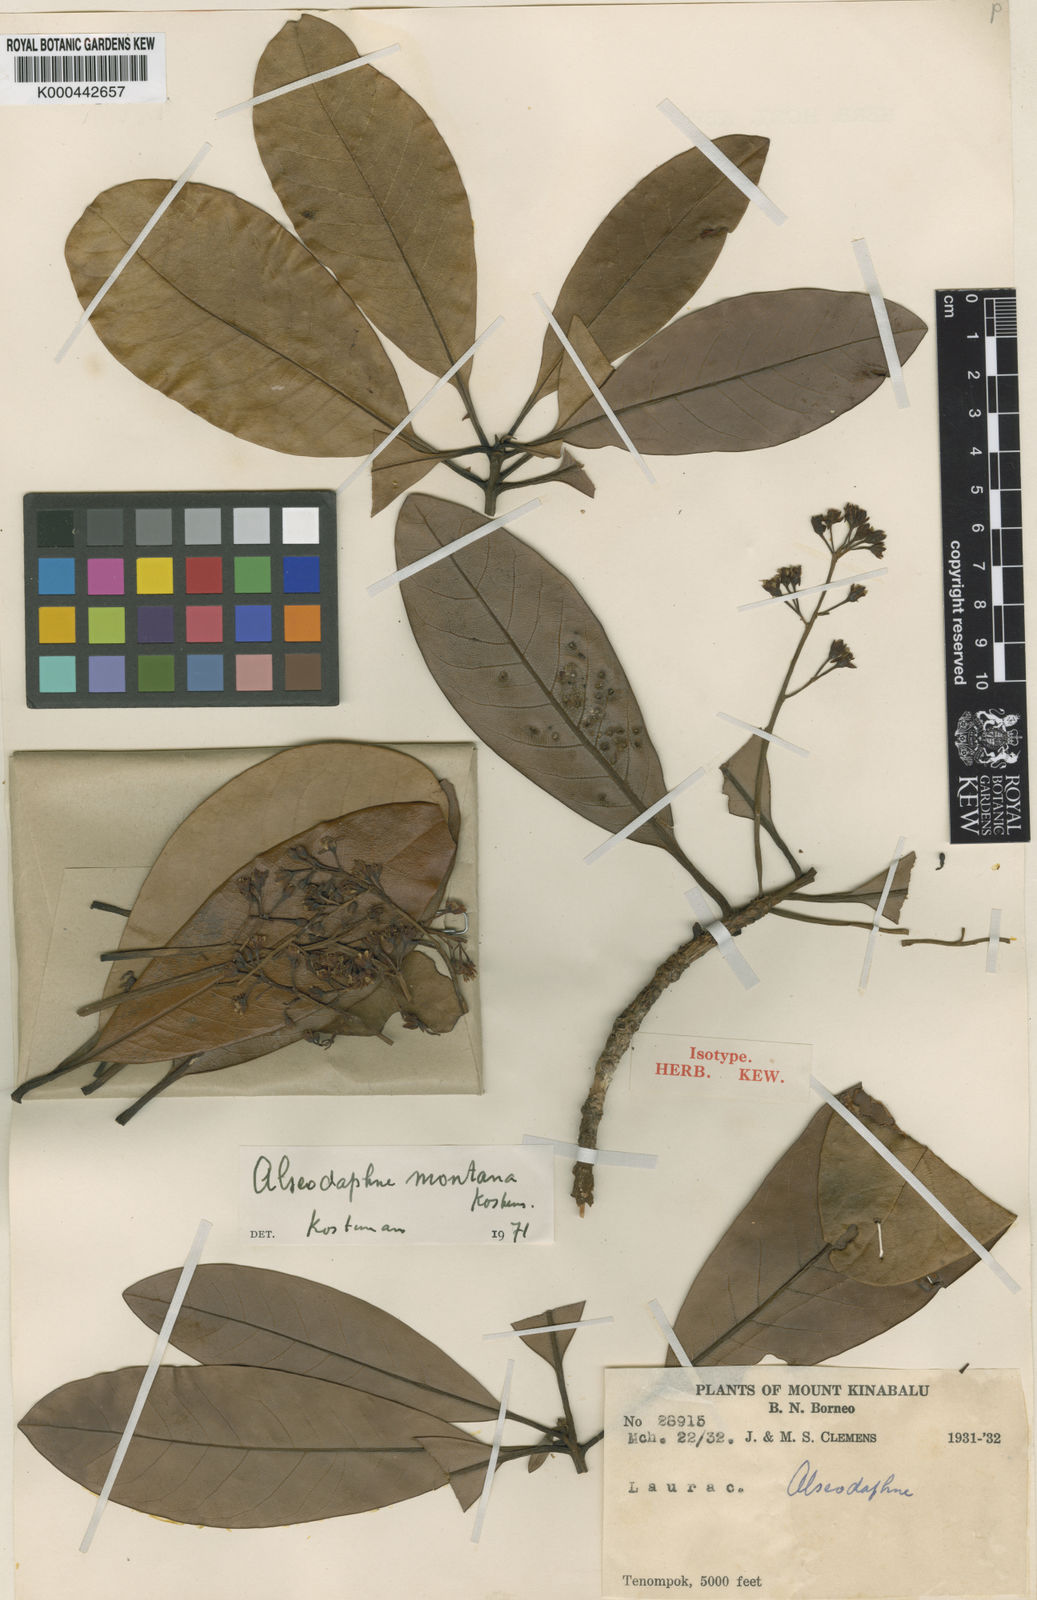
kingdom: Plantae
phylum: Tracheophyta
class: Magnoliopsida
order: Laurales
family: Lauraceae
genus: Alseodaphne
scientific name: Alseodaphne montana
